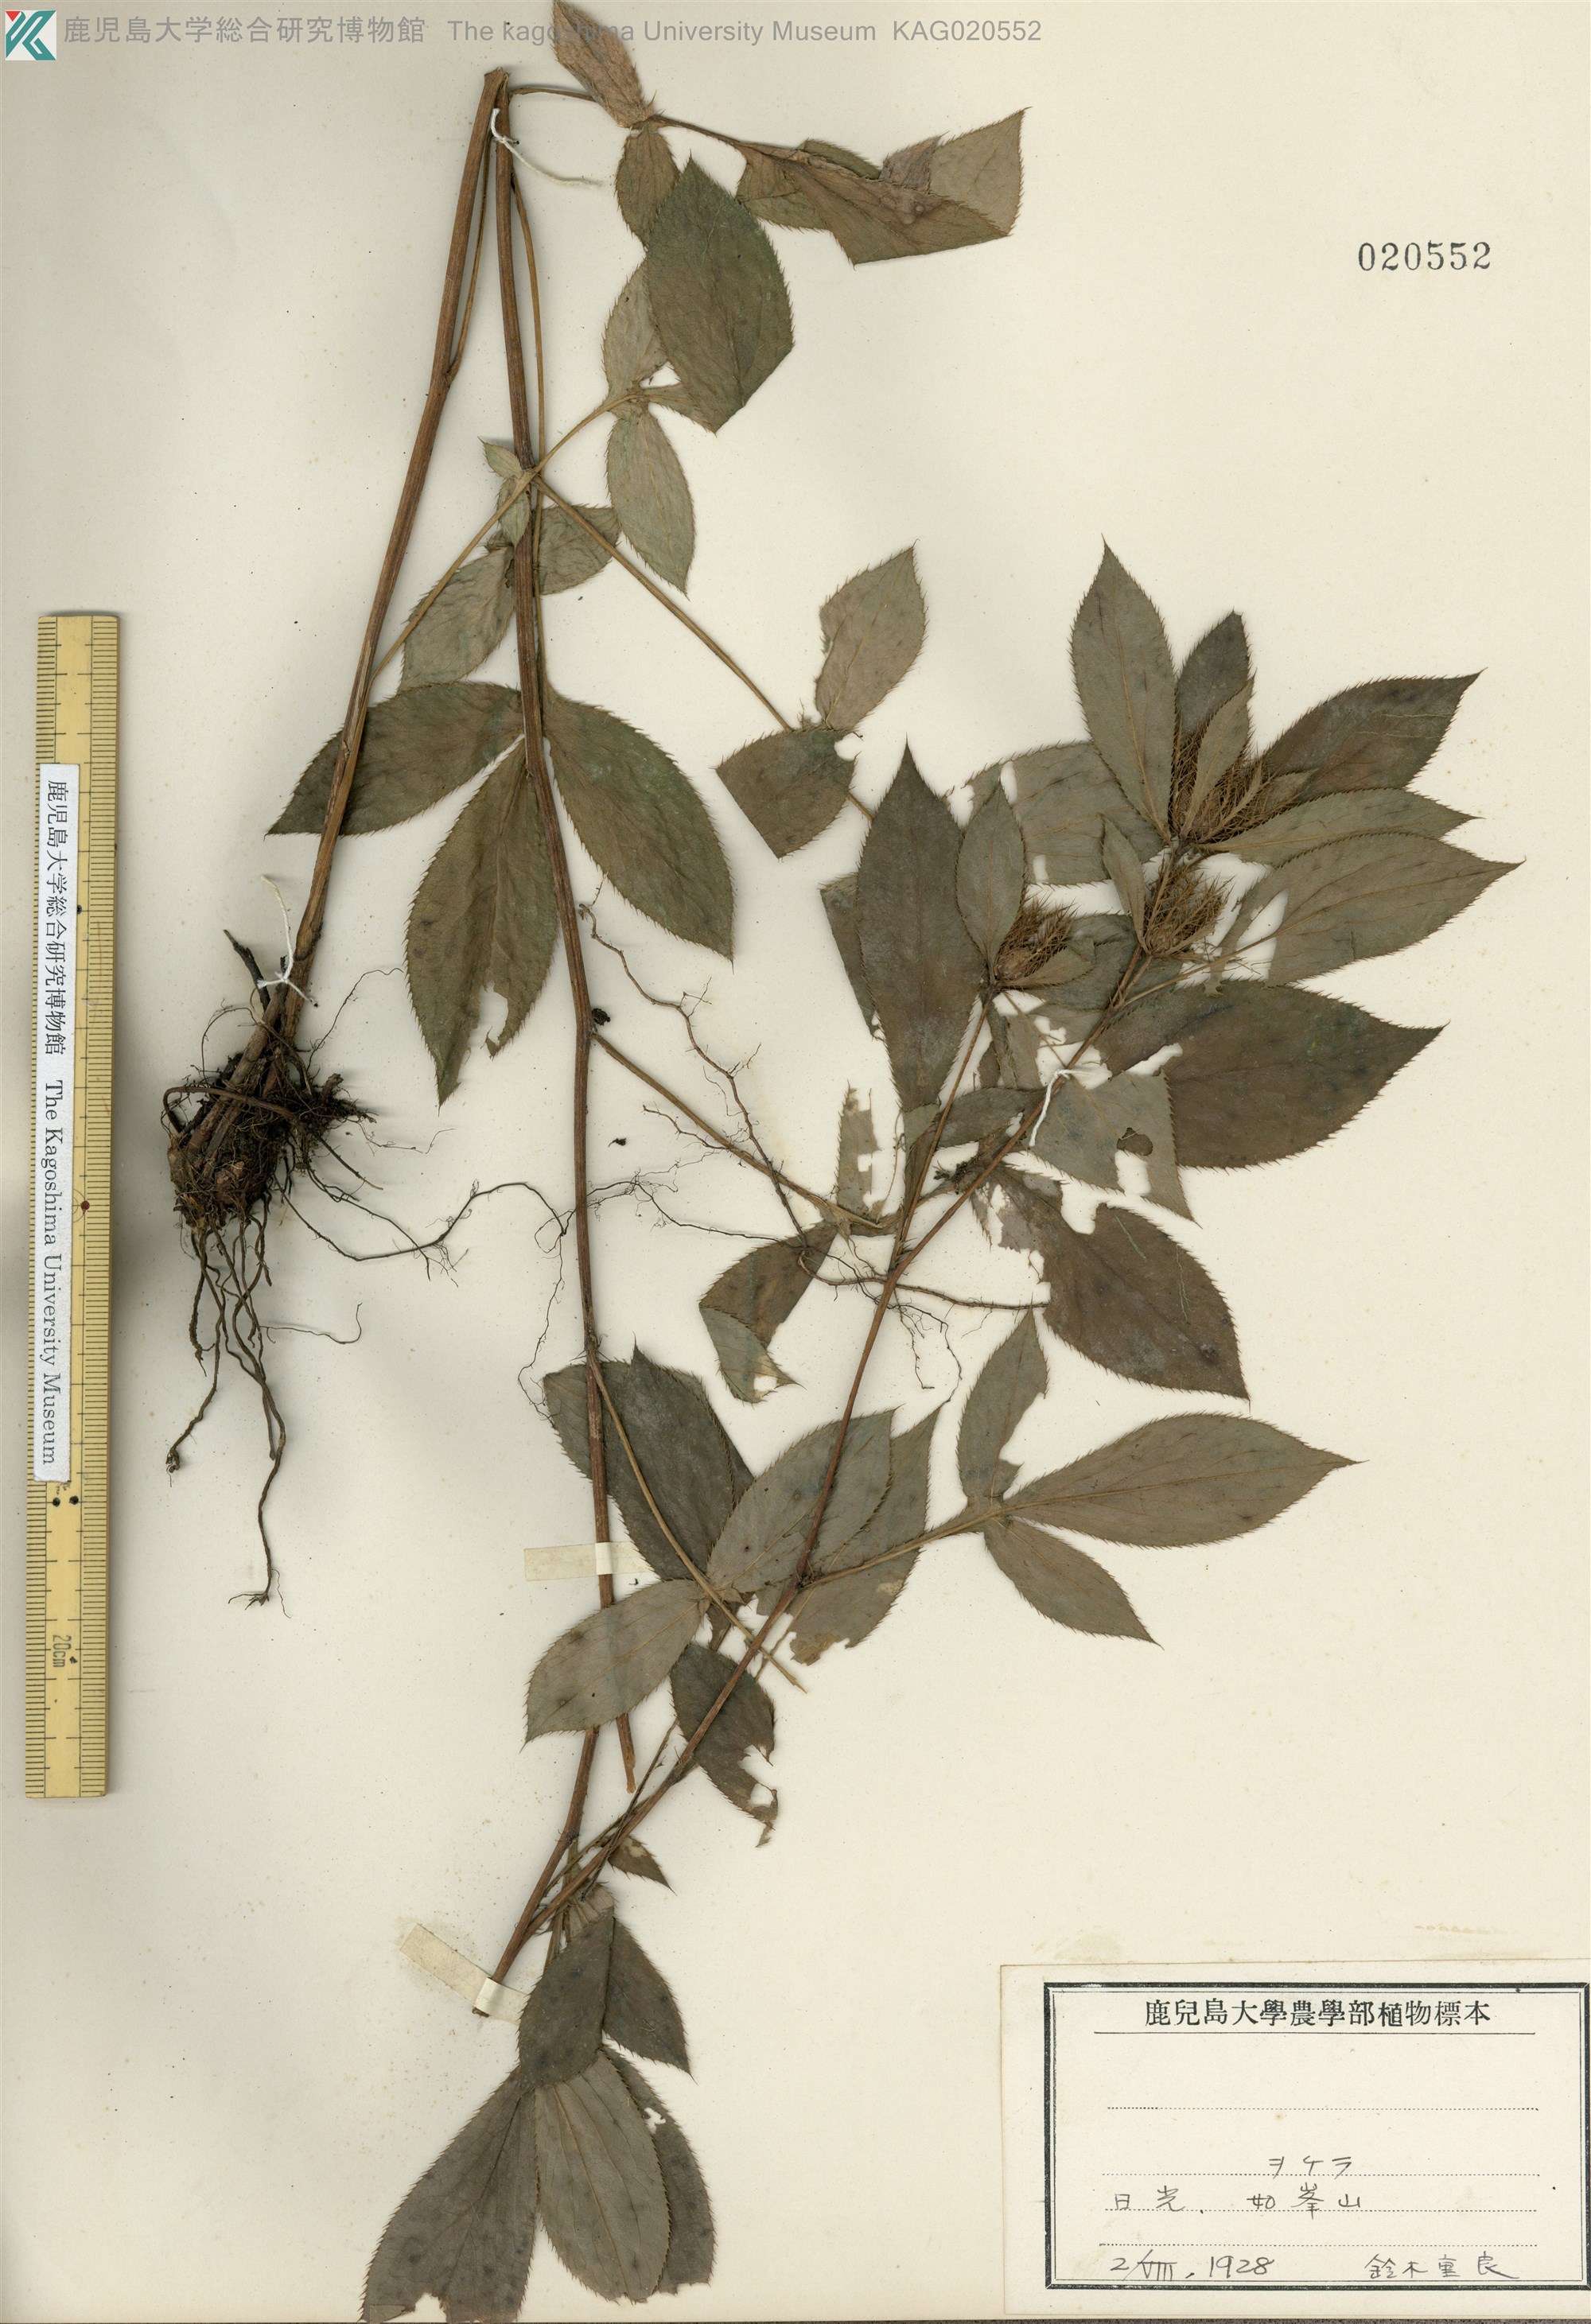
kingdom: Plantae
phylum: Tracheophyta
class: Magnoliopsida
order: Asterales
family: Asteraceae
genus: Atractylodes
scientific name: Atractylodes lancea
